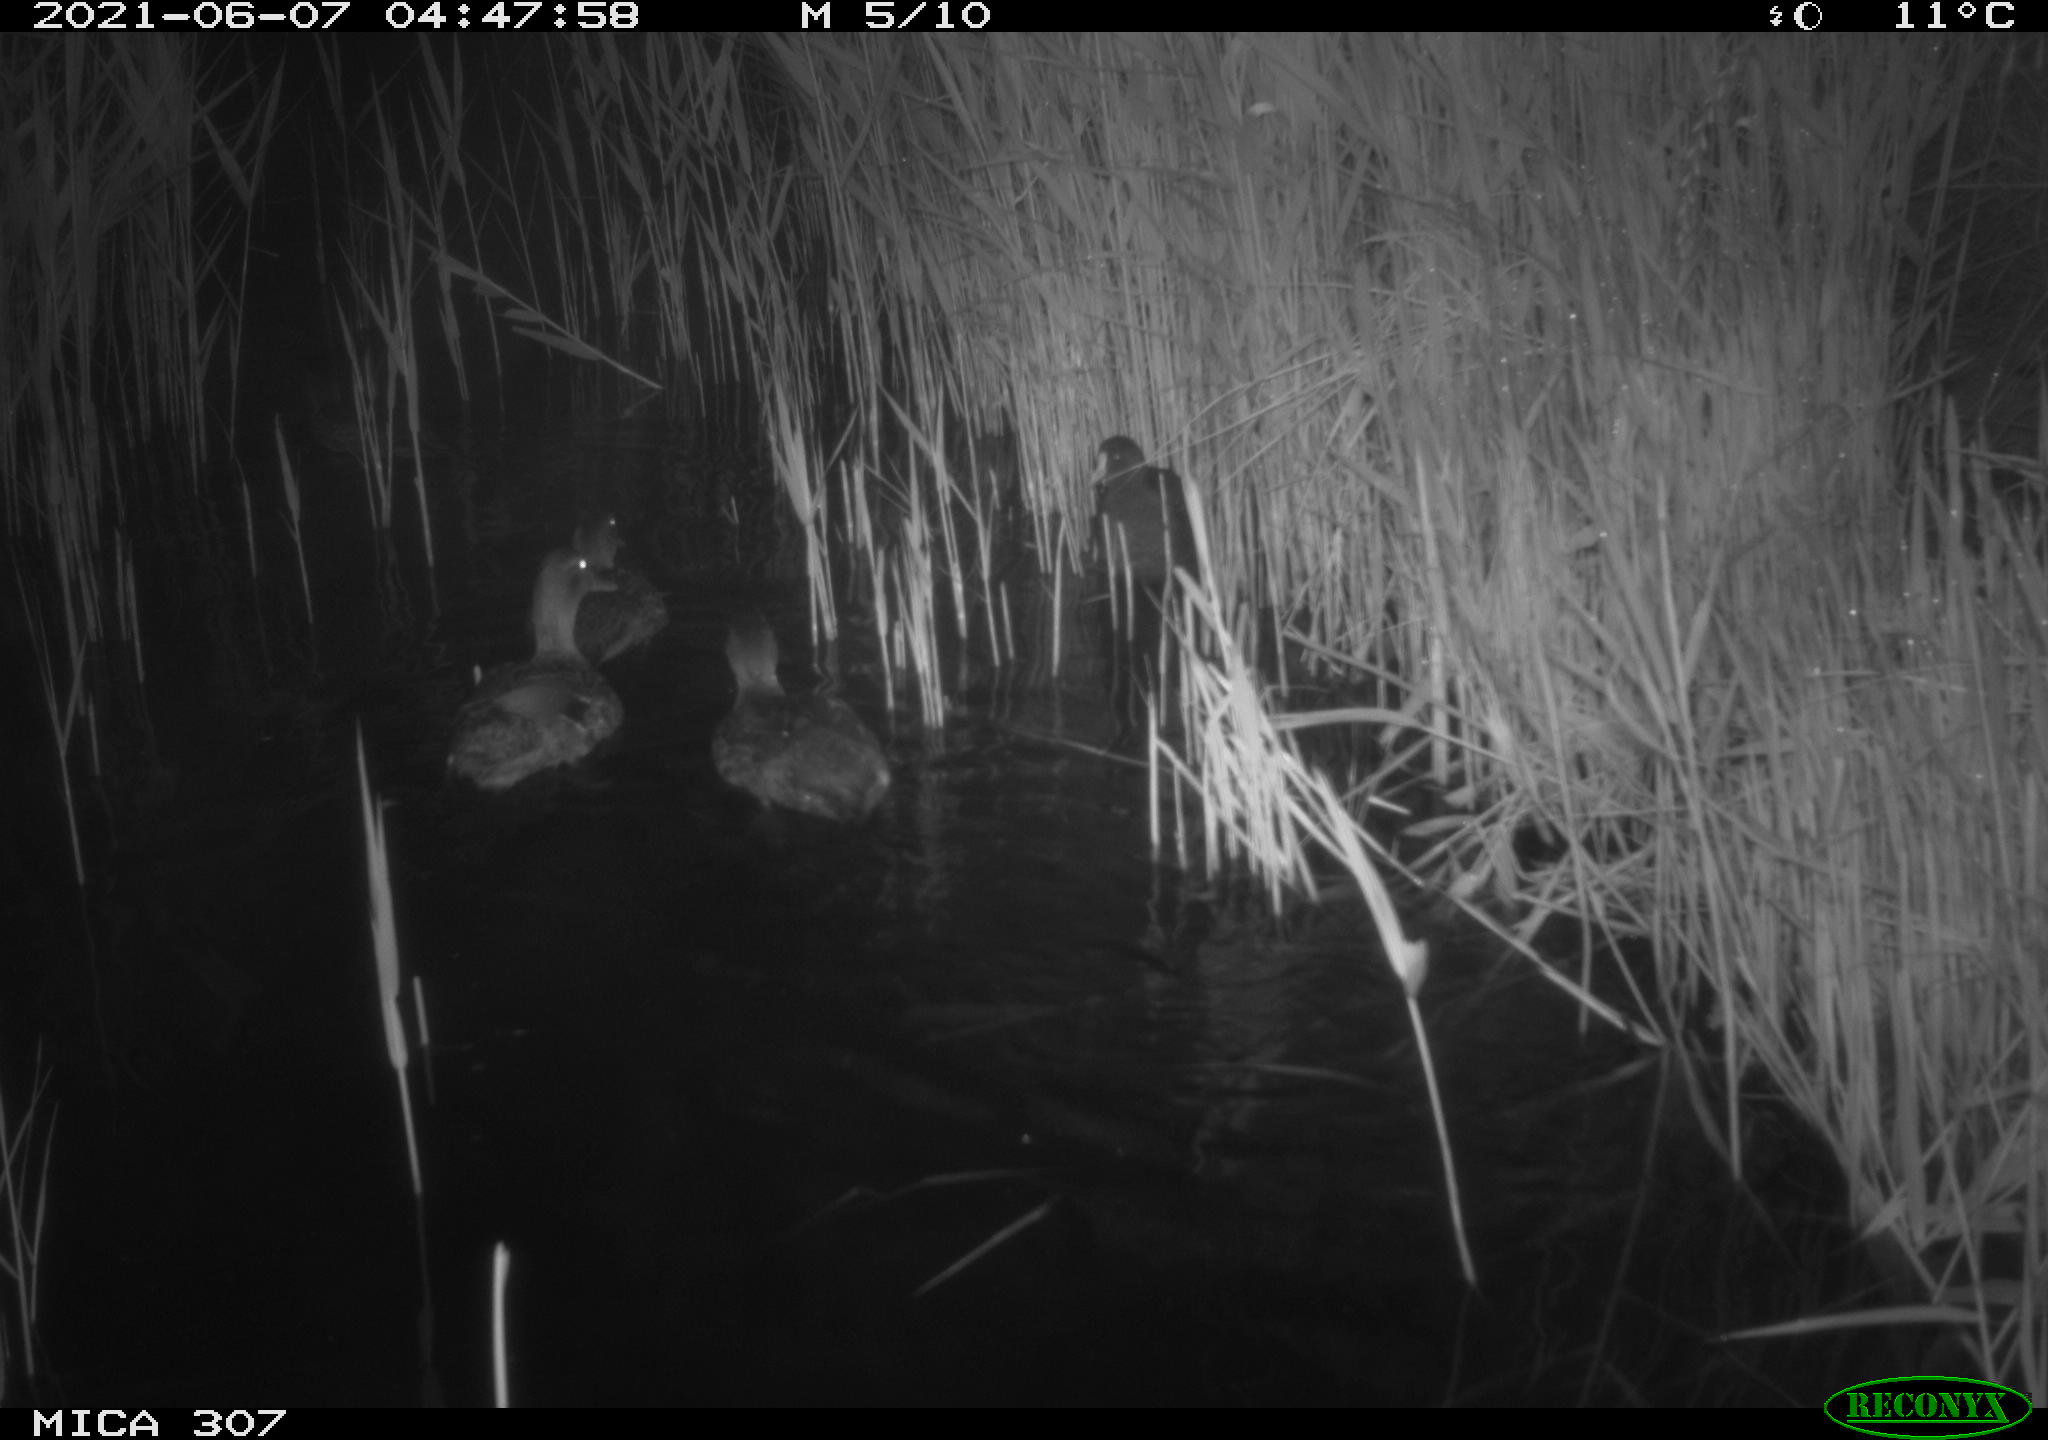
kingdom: Animalia
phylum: Chordata
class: Aves
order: Anseriformes
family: Anatidae
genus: Anas
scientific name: Anas platyrhynchos
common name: Mallard
